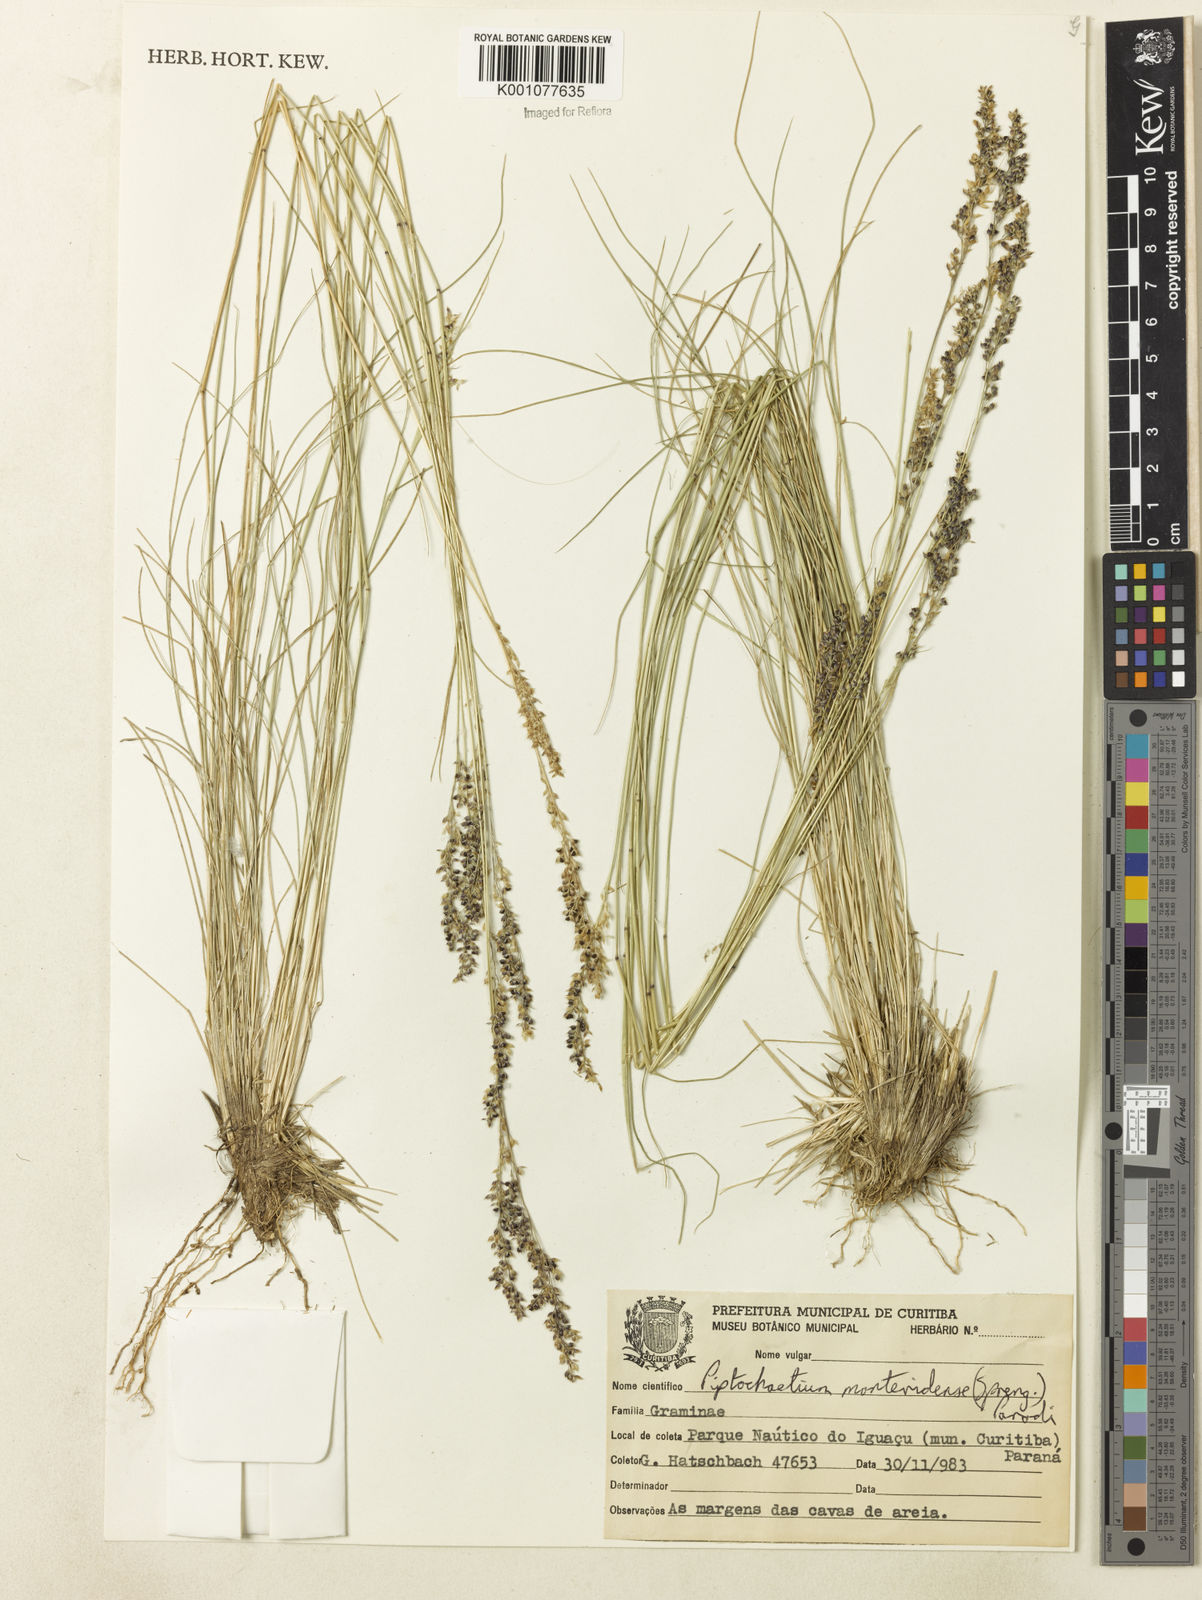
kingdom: Plantae
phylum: Tracheophyta
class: Liliopsida
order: Poales
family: Poaceae
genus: Piptochaetium
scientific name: Piptochaetium montevidense
